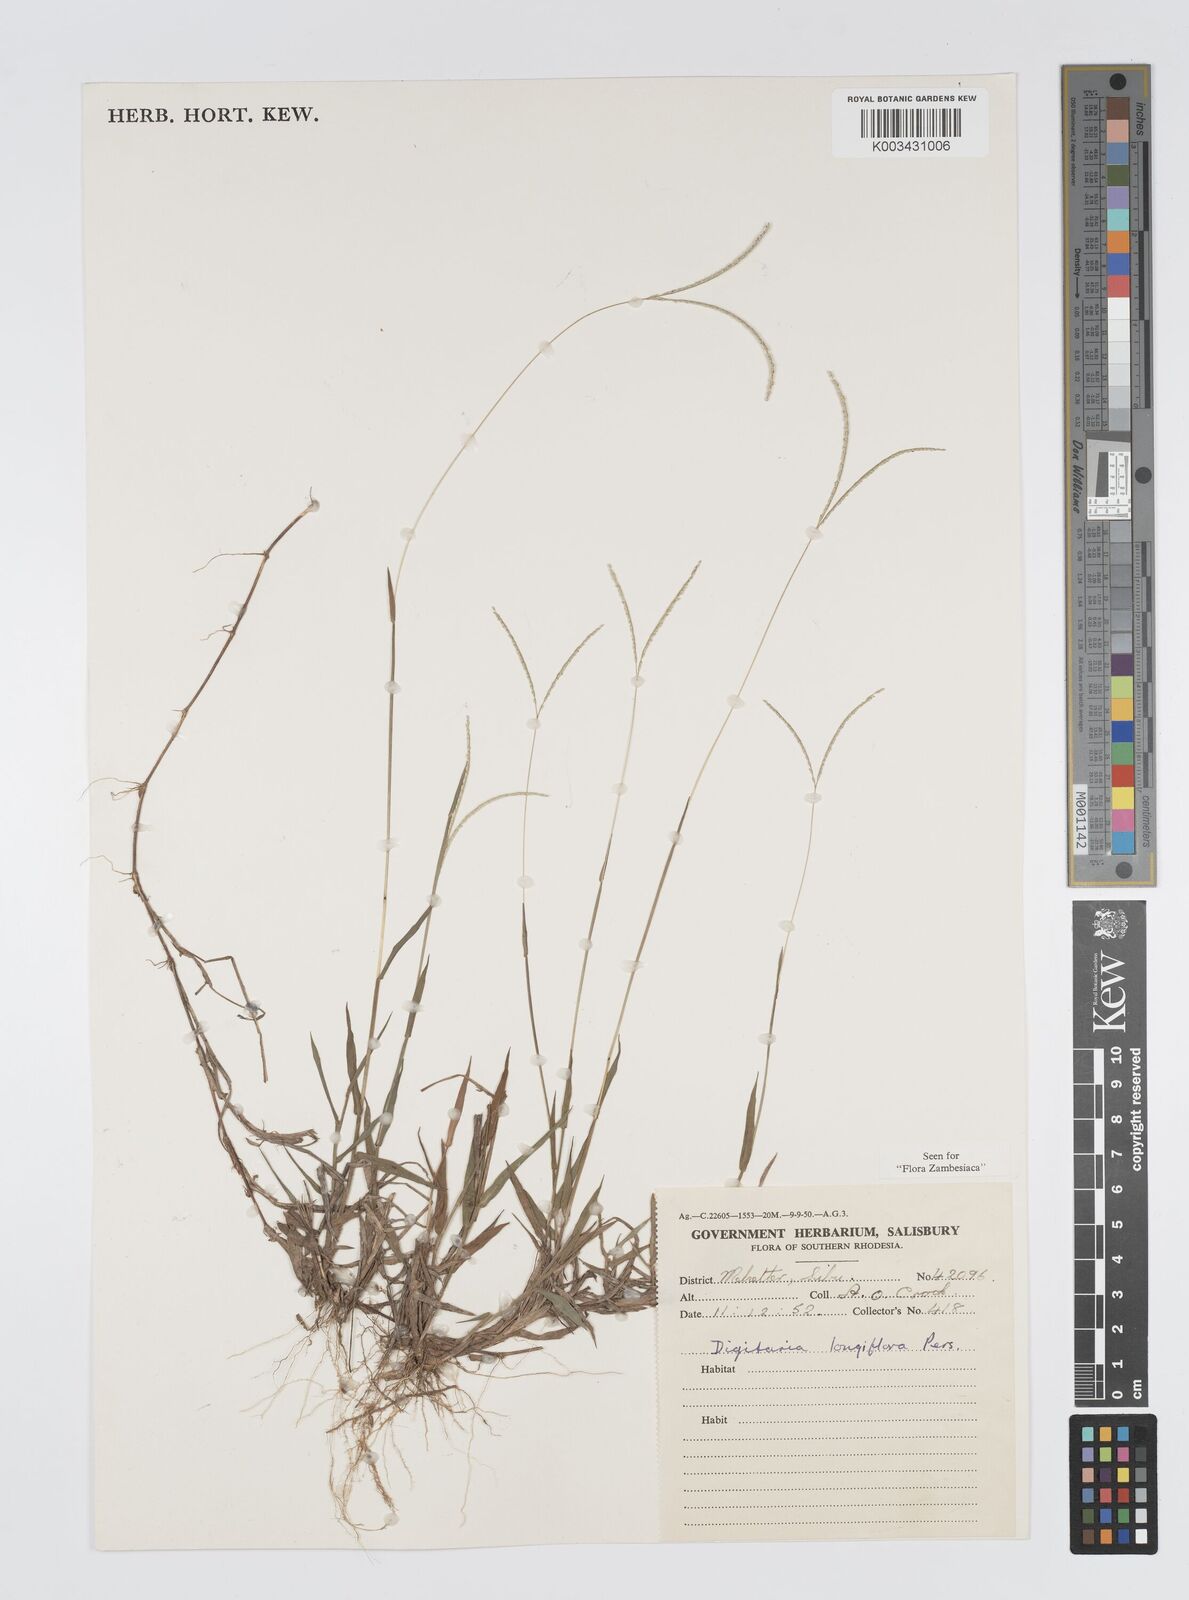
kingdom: Plantae
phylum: Tracheophyta
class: Liliopsida
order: Poales
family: Poaceae
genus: Digitaria
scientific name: Digitaria longiflora
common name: Wire crabgrass
